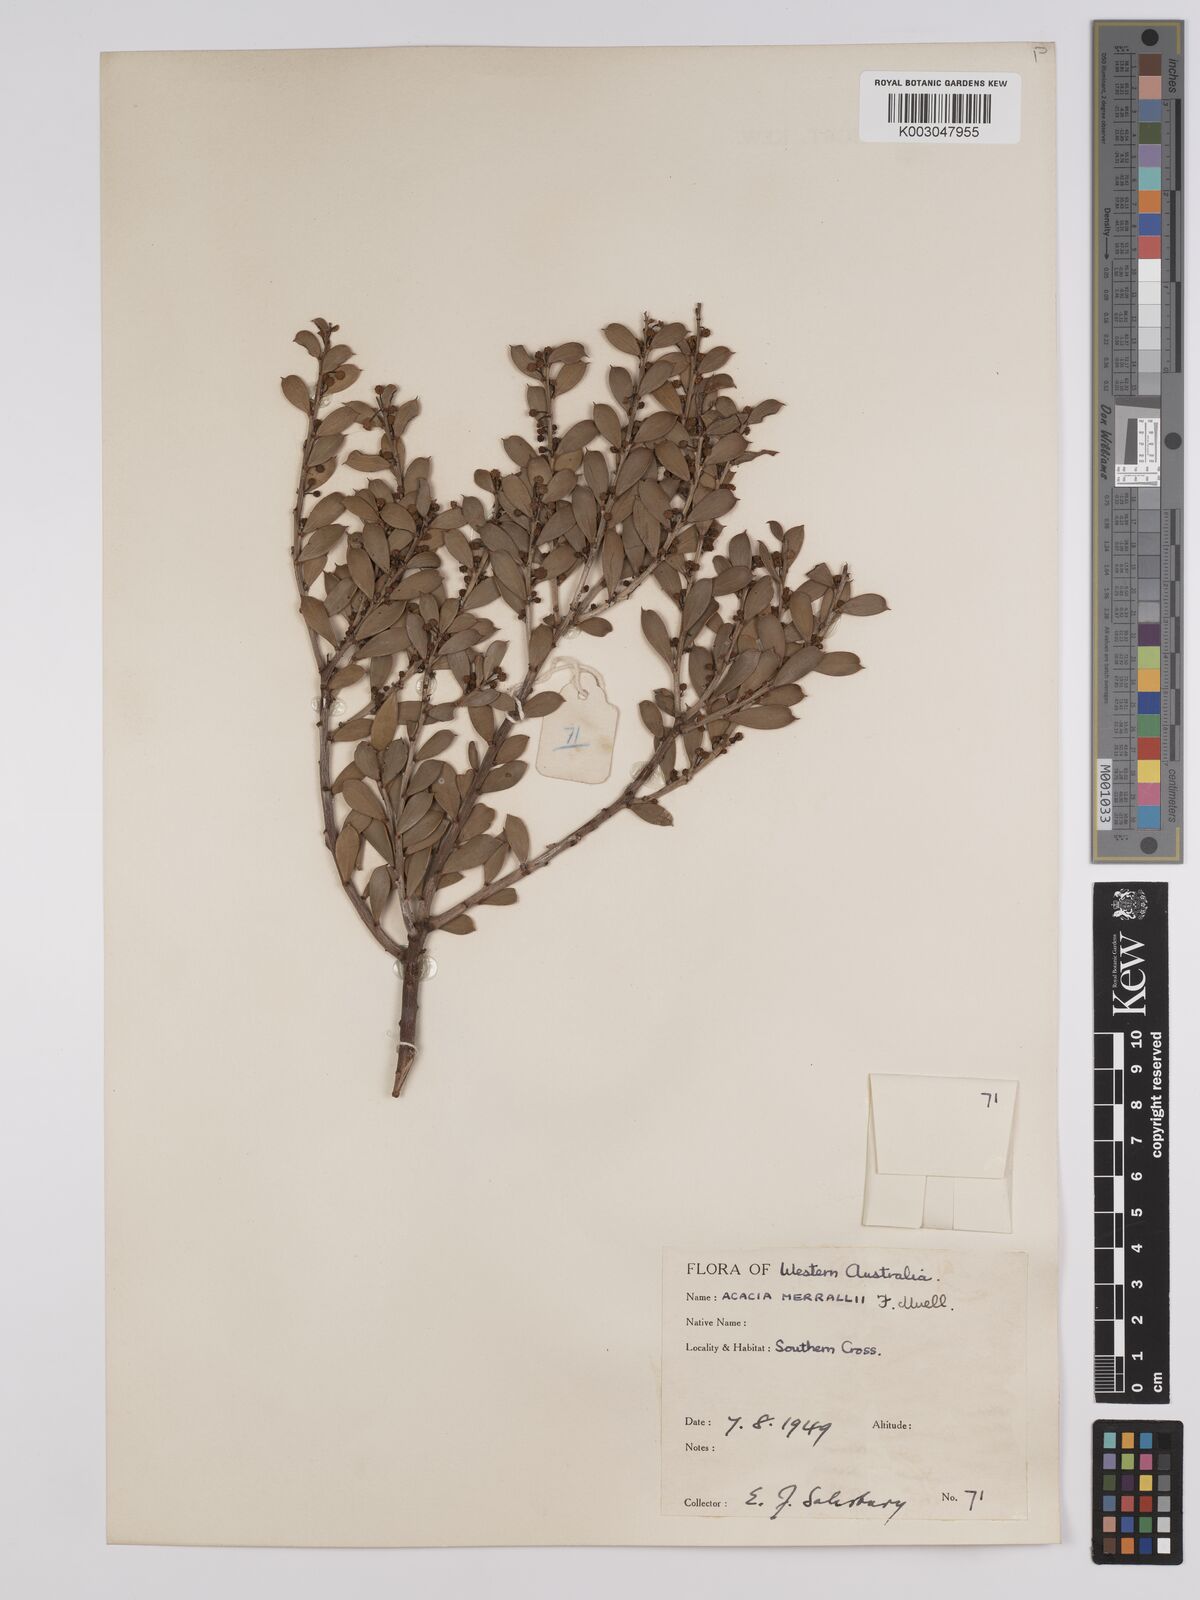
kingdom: Plantae
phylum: Tracheophyta
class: Magnoliopsida
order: Fabales
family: Fabaceae
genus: Acacia
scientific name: Acacia merrallii
